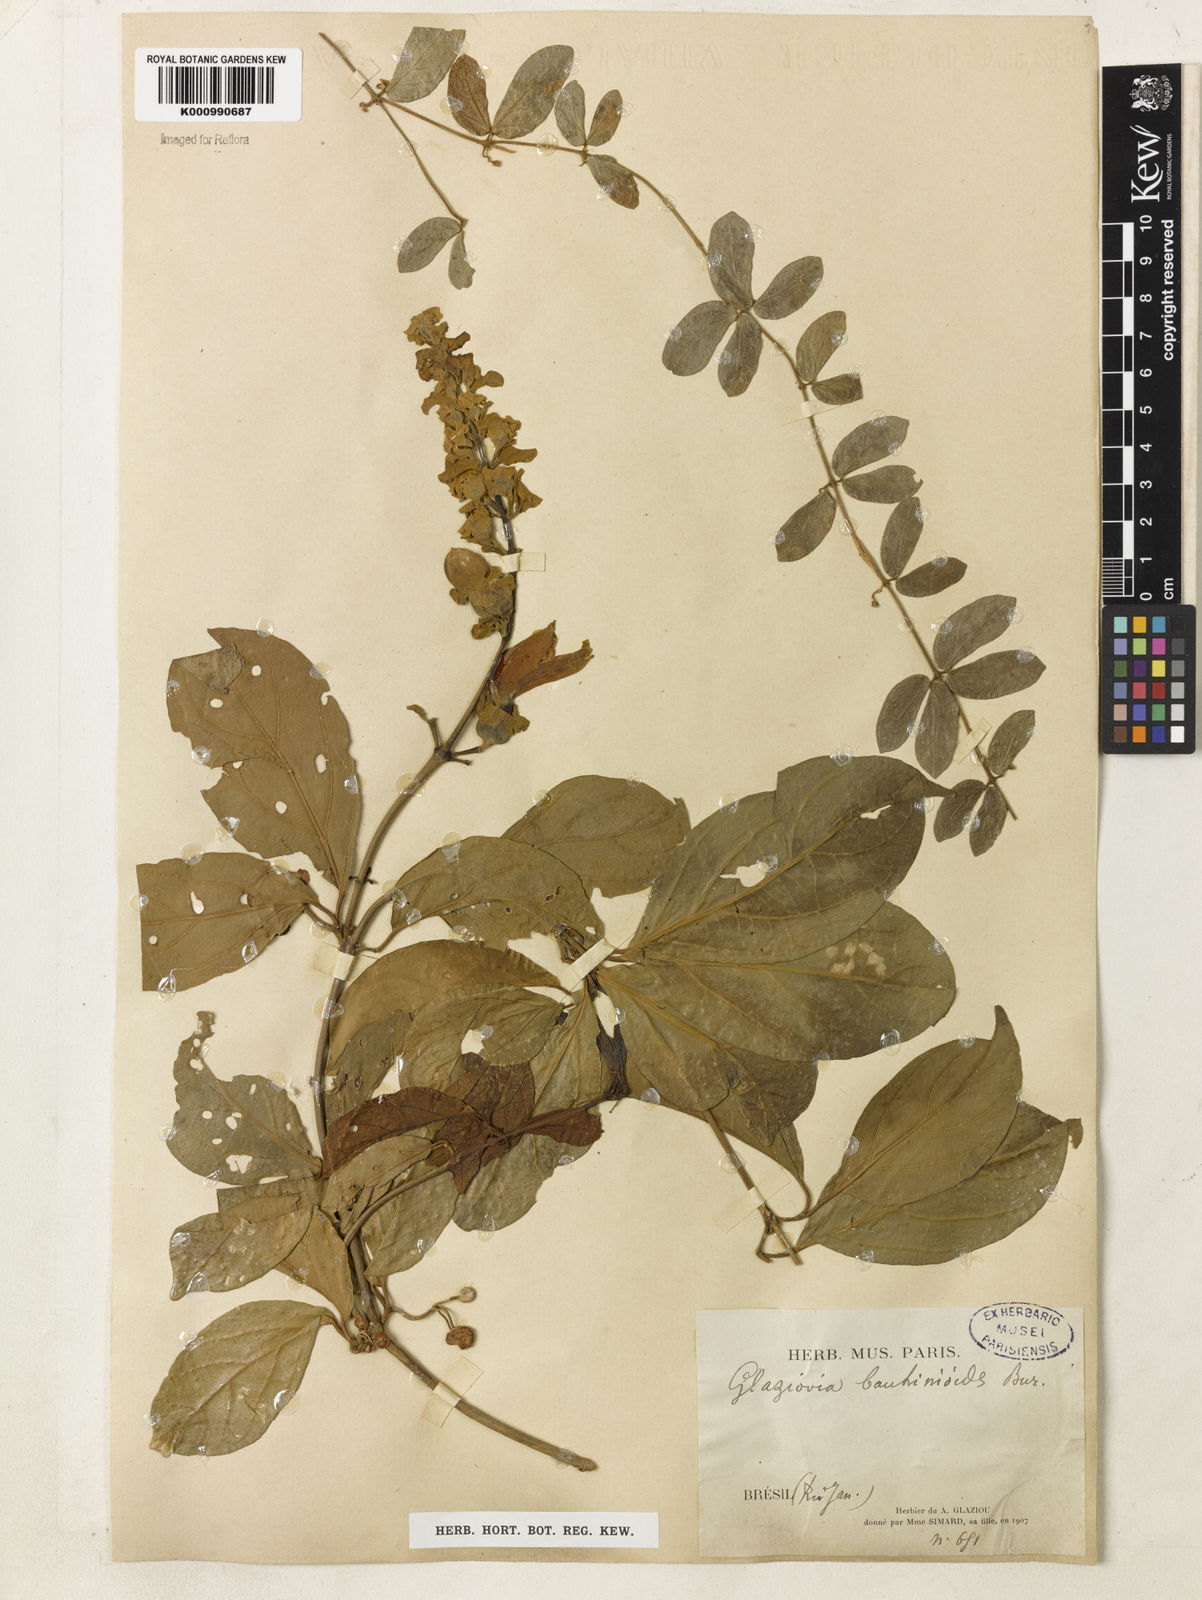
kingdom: Plantae
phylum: Tracheophyta
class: Magnoliopsida
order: Lamiales
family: Bignoniaceae
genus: Amphilophium
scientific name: Amphilophium bauhinioides
